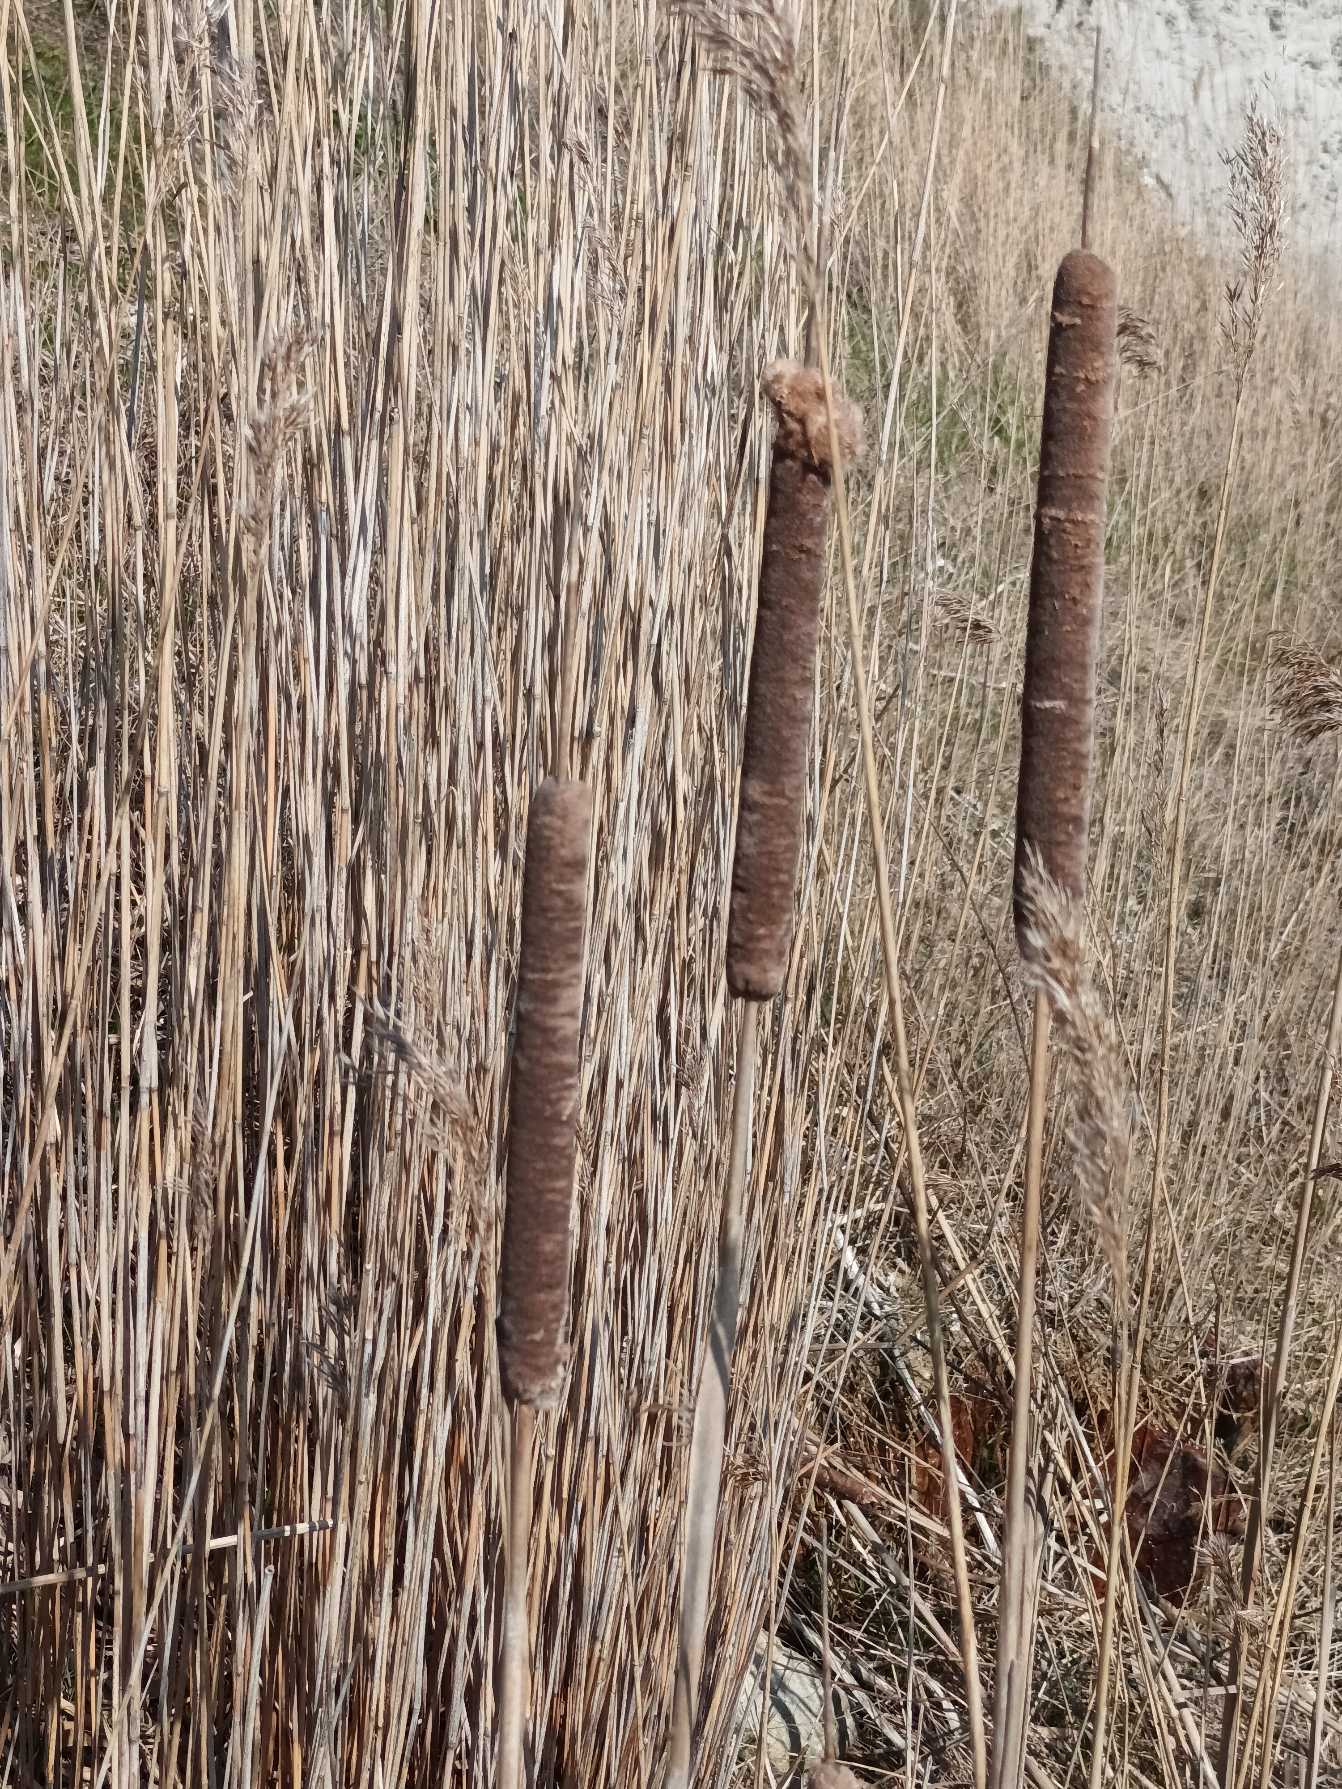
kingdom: Plantae
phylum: Tracheophyta
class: Liliopsida
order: Poales
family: Typhaceae
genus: Typha
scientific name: Typha latifolia
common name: Bredbladet dunhammer
